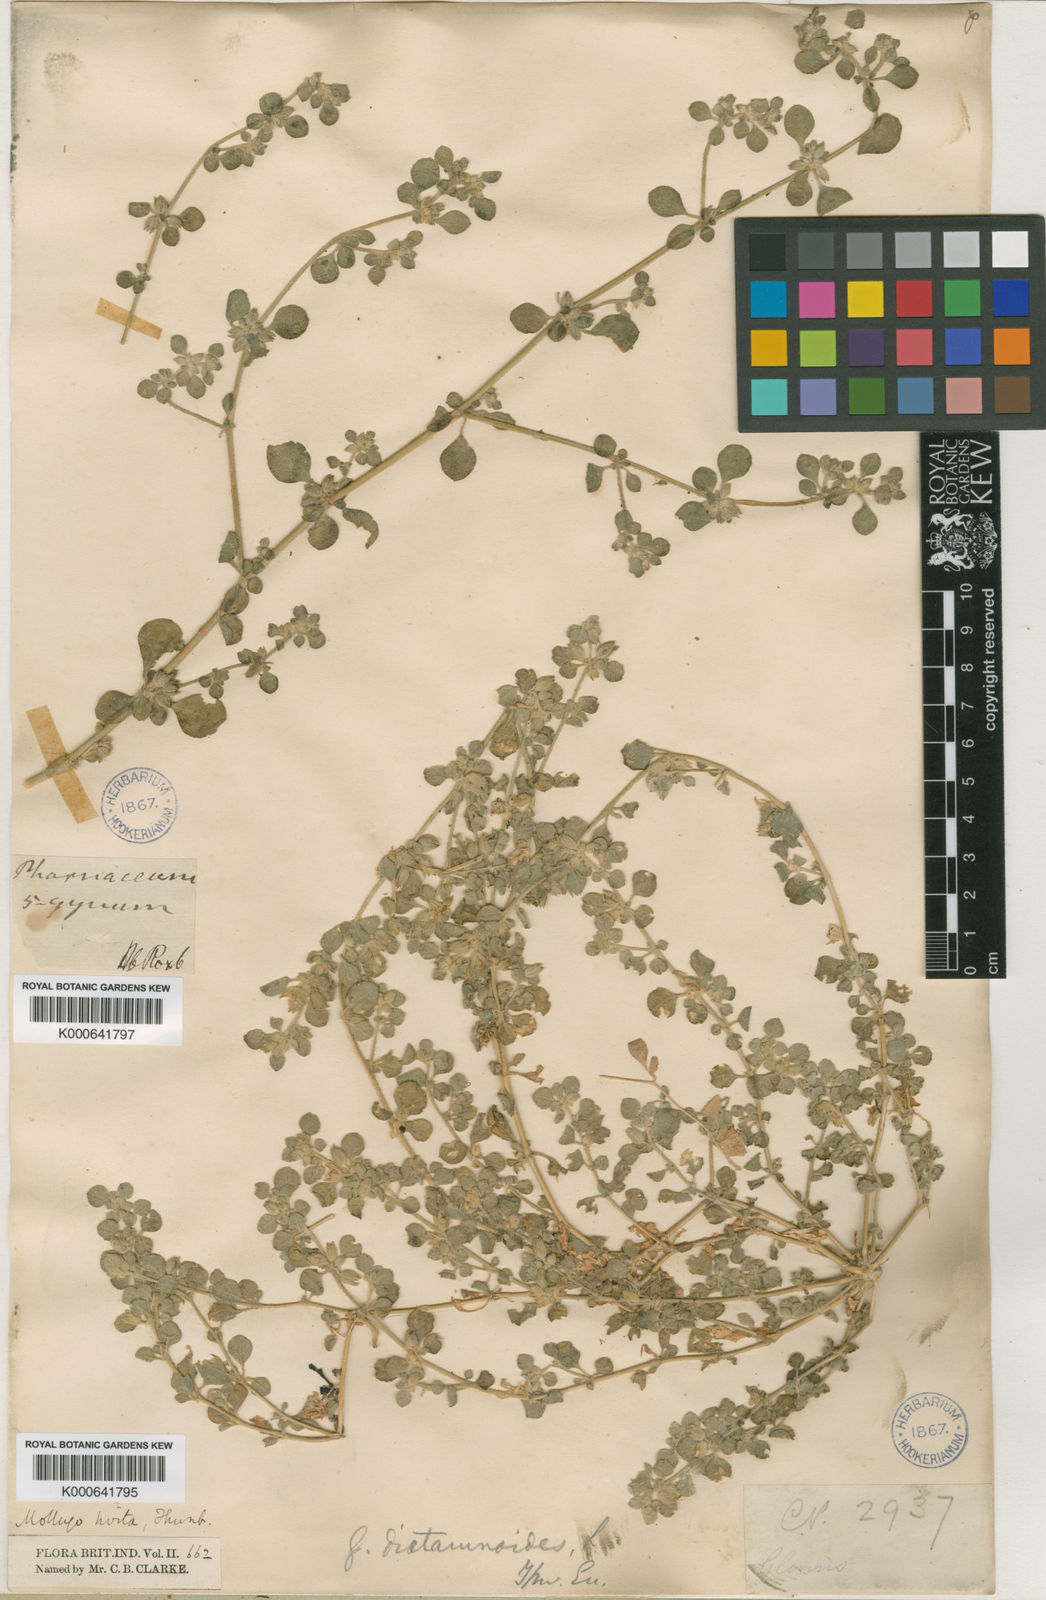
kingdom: Plantae
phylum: Tracheophyta
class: Magnoliopsida
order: Caryophyllales
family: Molluginaceae
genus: Glinus
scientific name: Glinus lotoides
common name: Lotus sweetjuice
